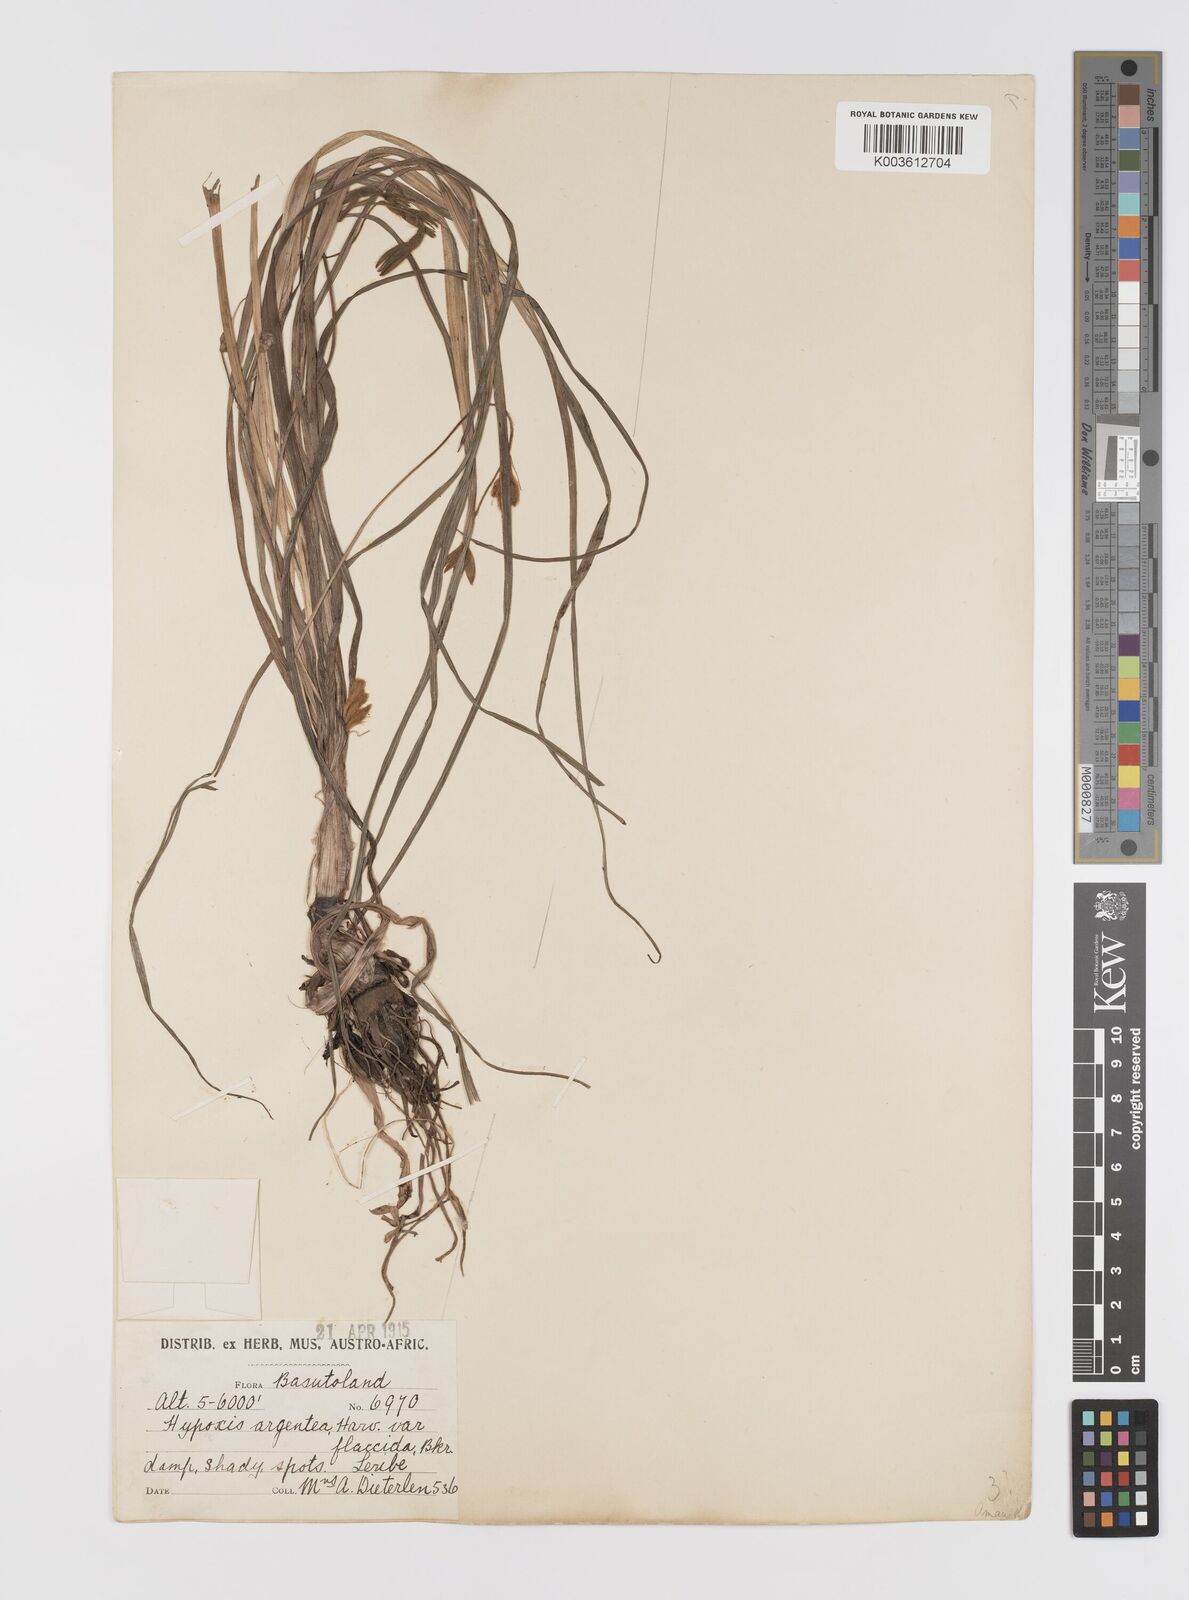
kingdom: Plantae
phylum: Tracheophyta
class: Liliopsida
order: Asparagales
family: Hypoxidaceae
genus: Hypoxis
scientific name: Hypoxis argentea
